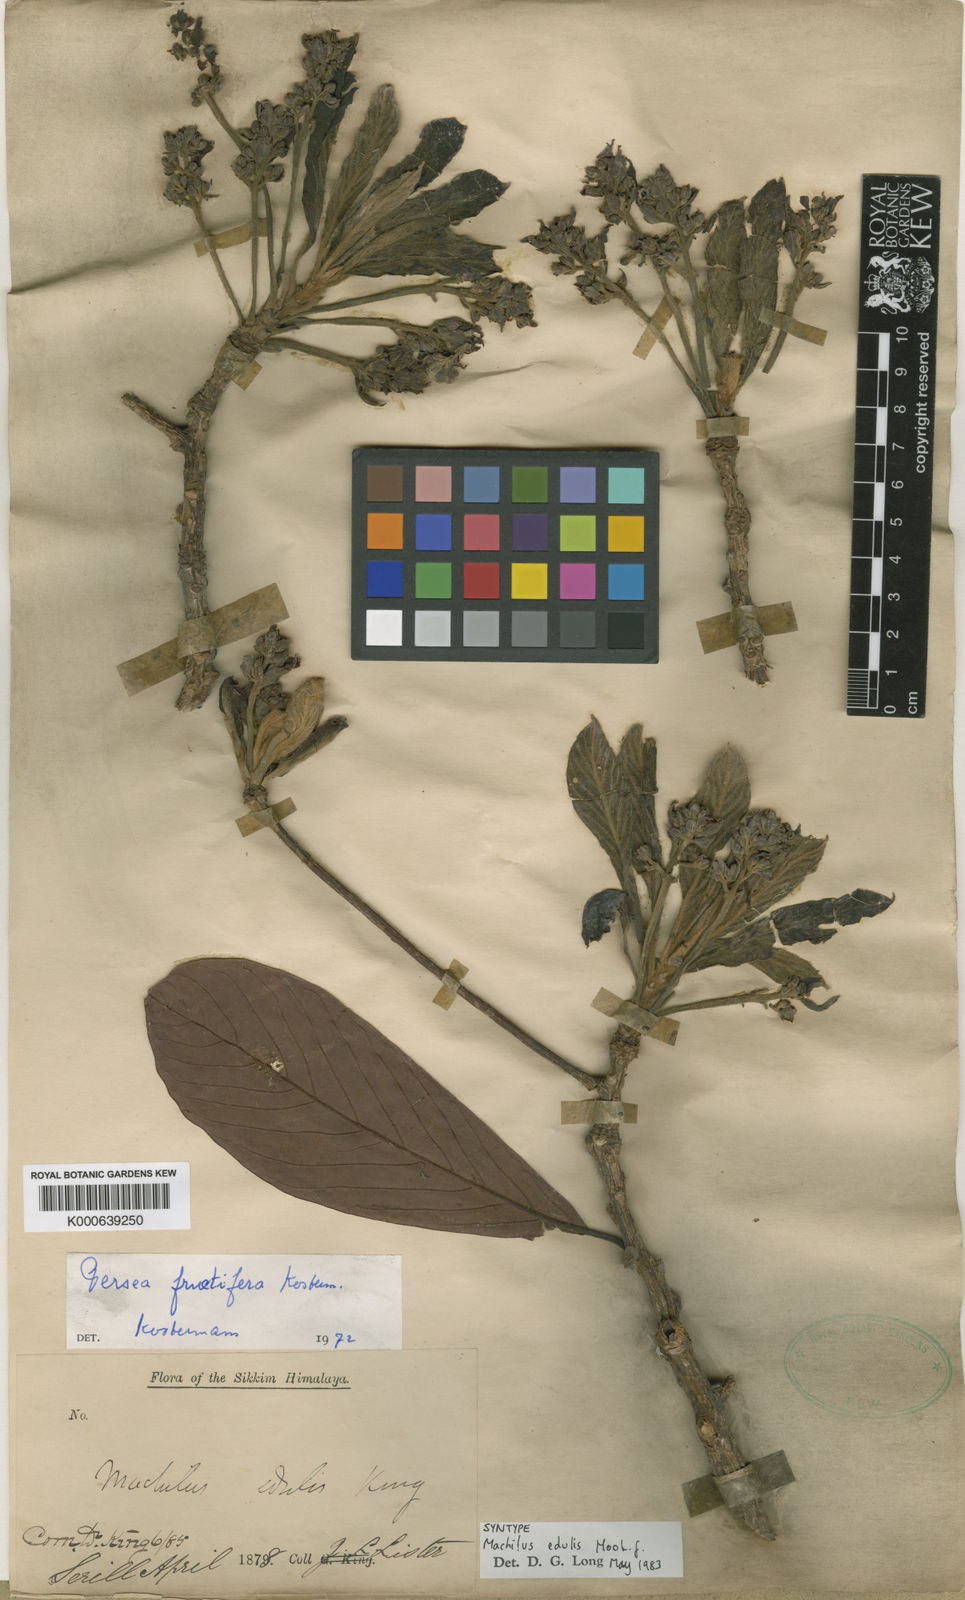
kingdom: Plantae
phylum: Tracheophyta
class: Magnoliopsida
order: Laurales
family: Lauraceae
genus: Machilus
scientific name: Machilus edulis
